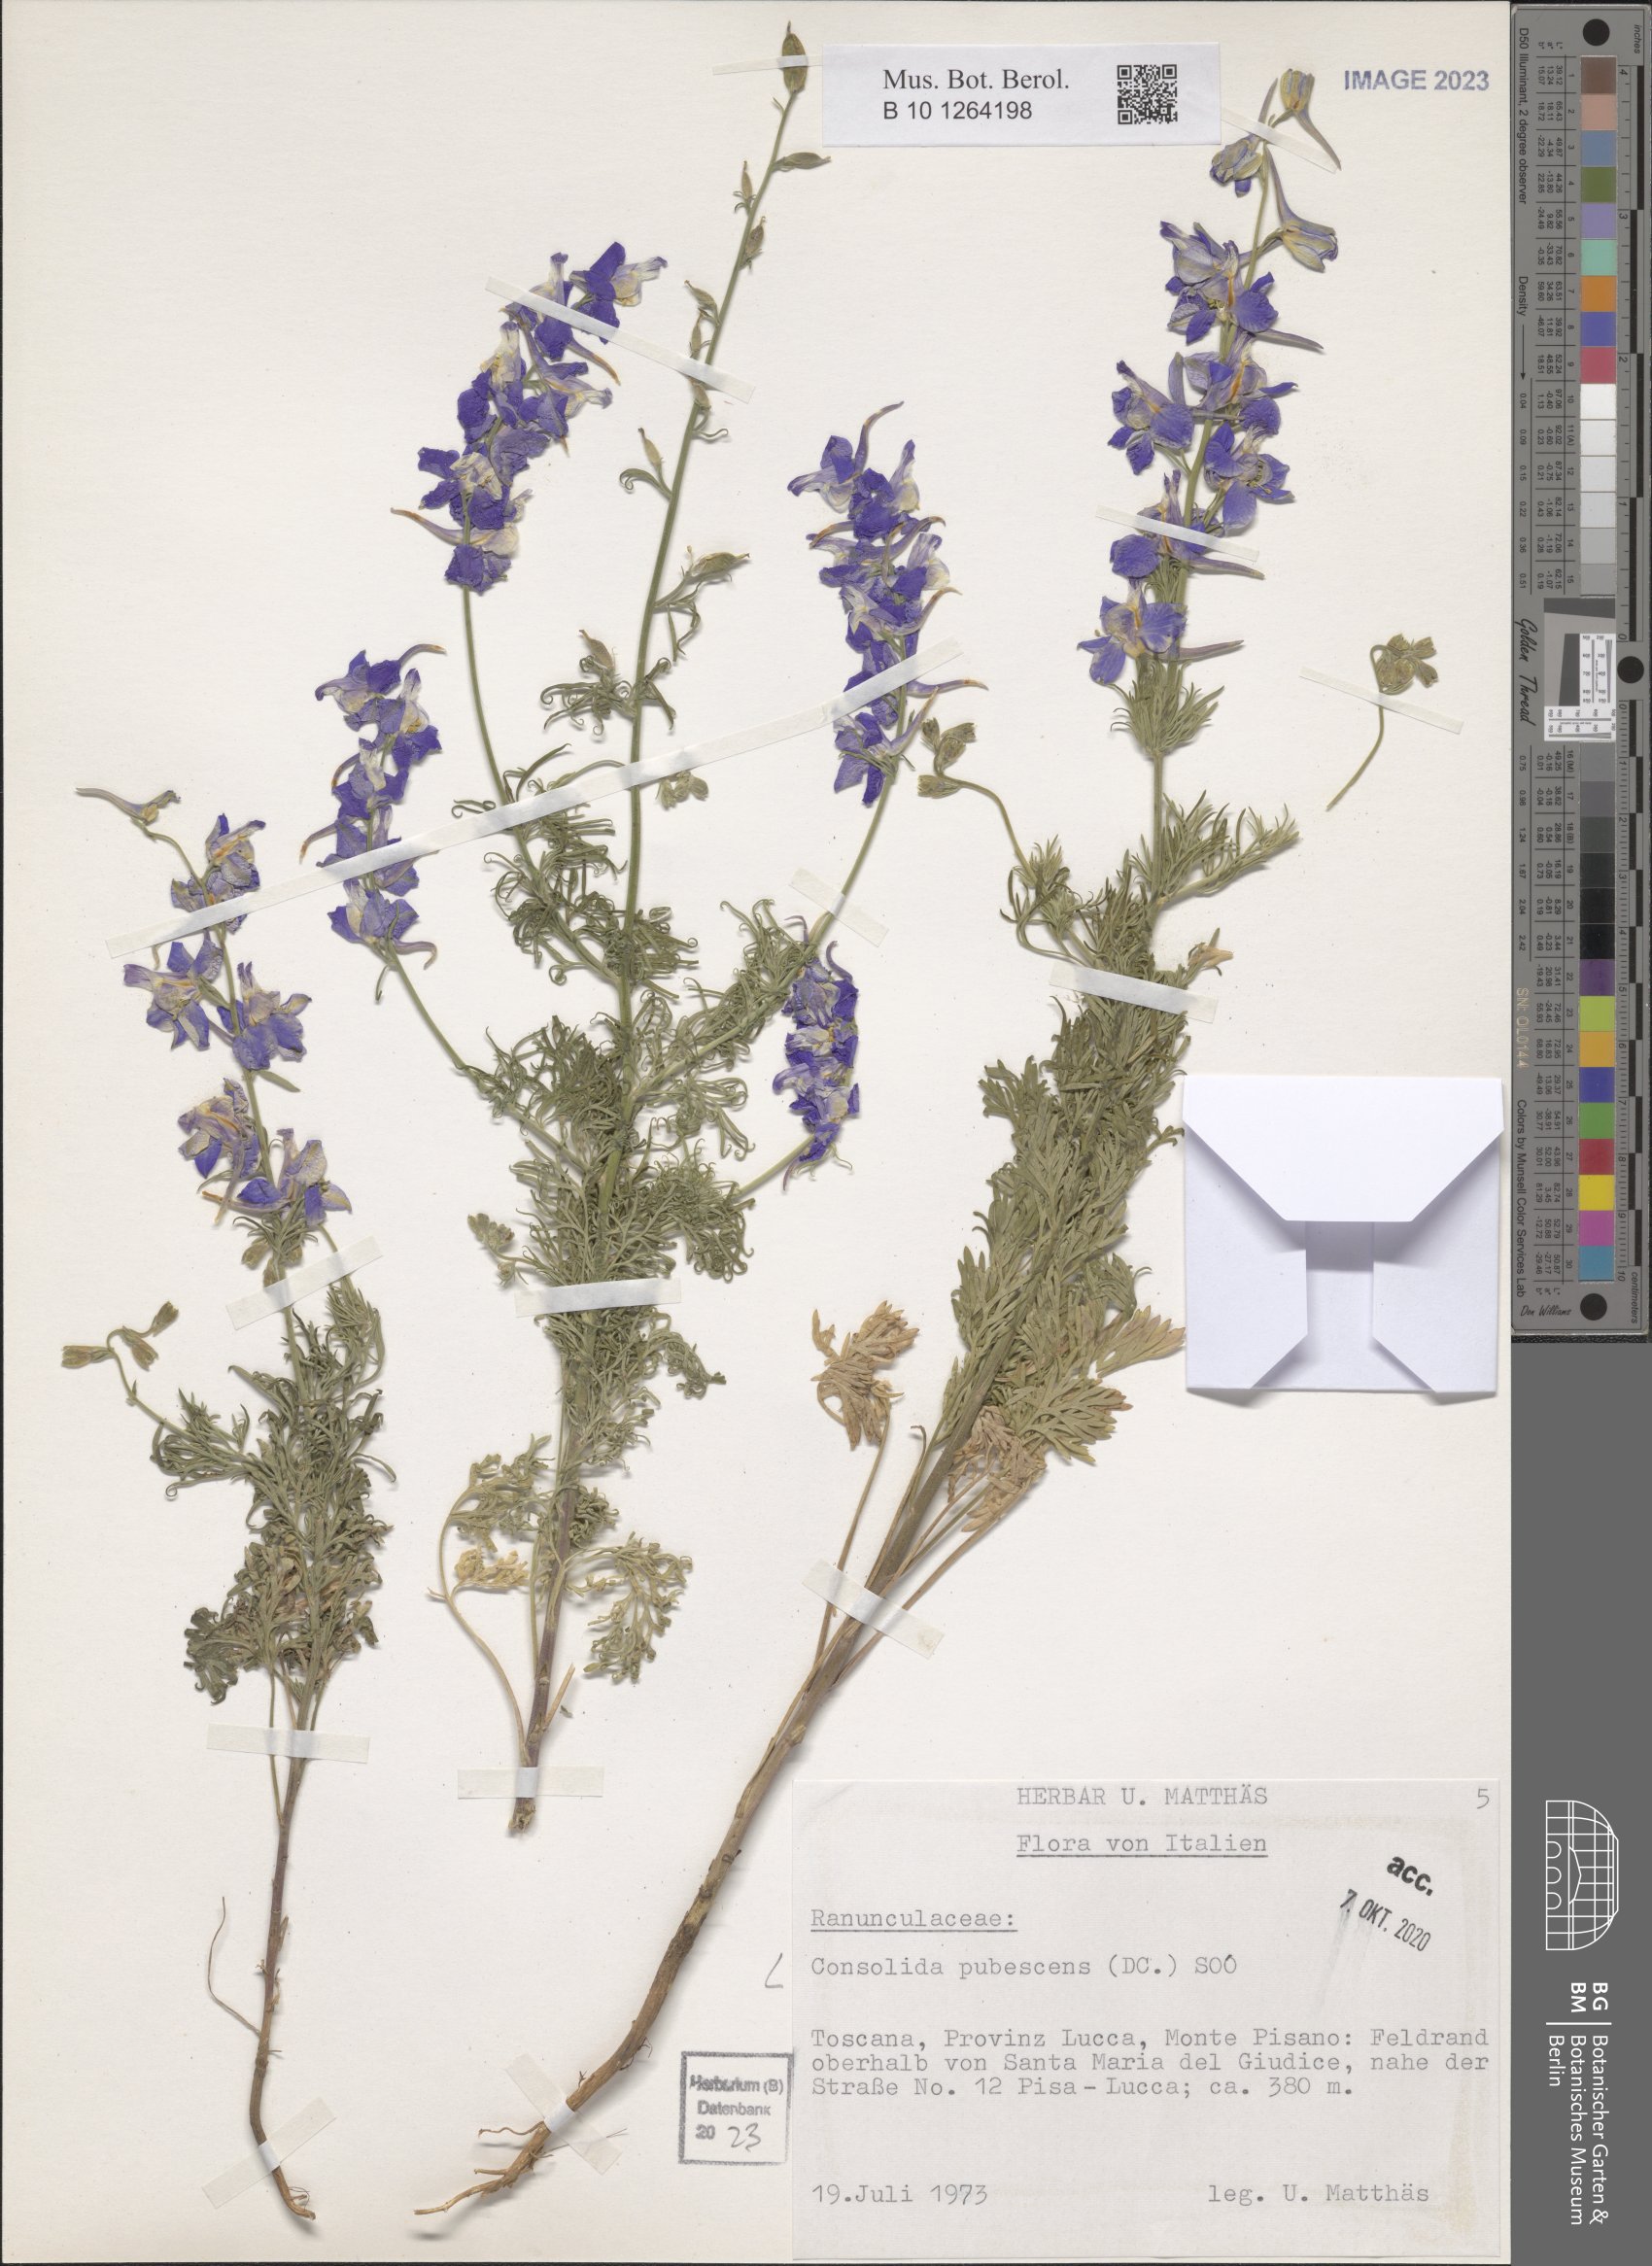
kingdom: Plantae
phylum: Tracheophyta
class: Magnoliopsida
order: Ranunculales
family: Ranunculaceae
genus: Delphinium
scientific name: Delphinium pubescens
